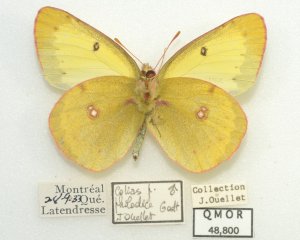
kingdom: Animalia
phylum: Arthropoda
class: Insecta
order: Lepidoptera
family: Pieridae
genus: Colias
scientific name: Colias philodice
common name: Clouded Sulphur
